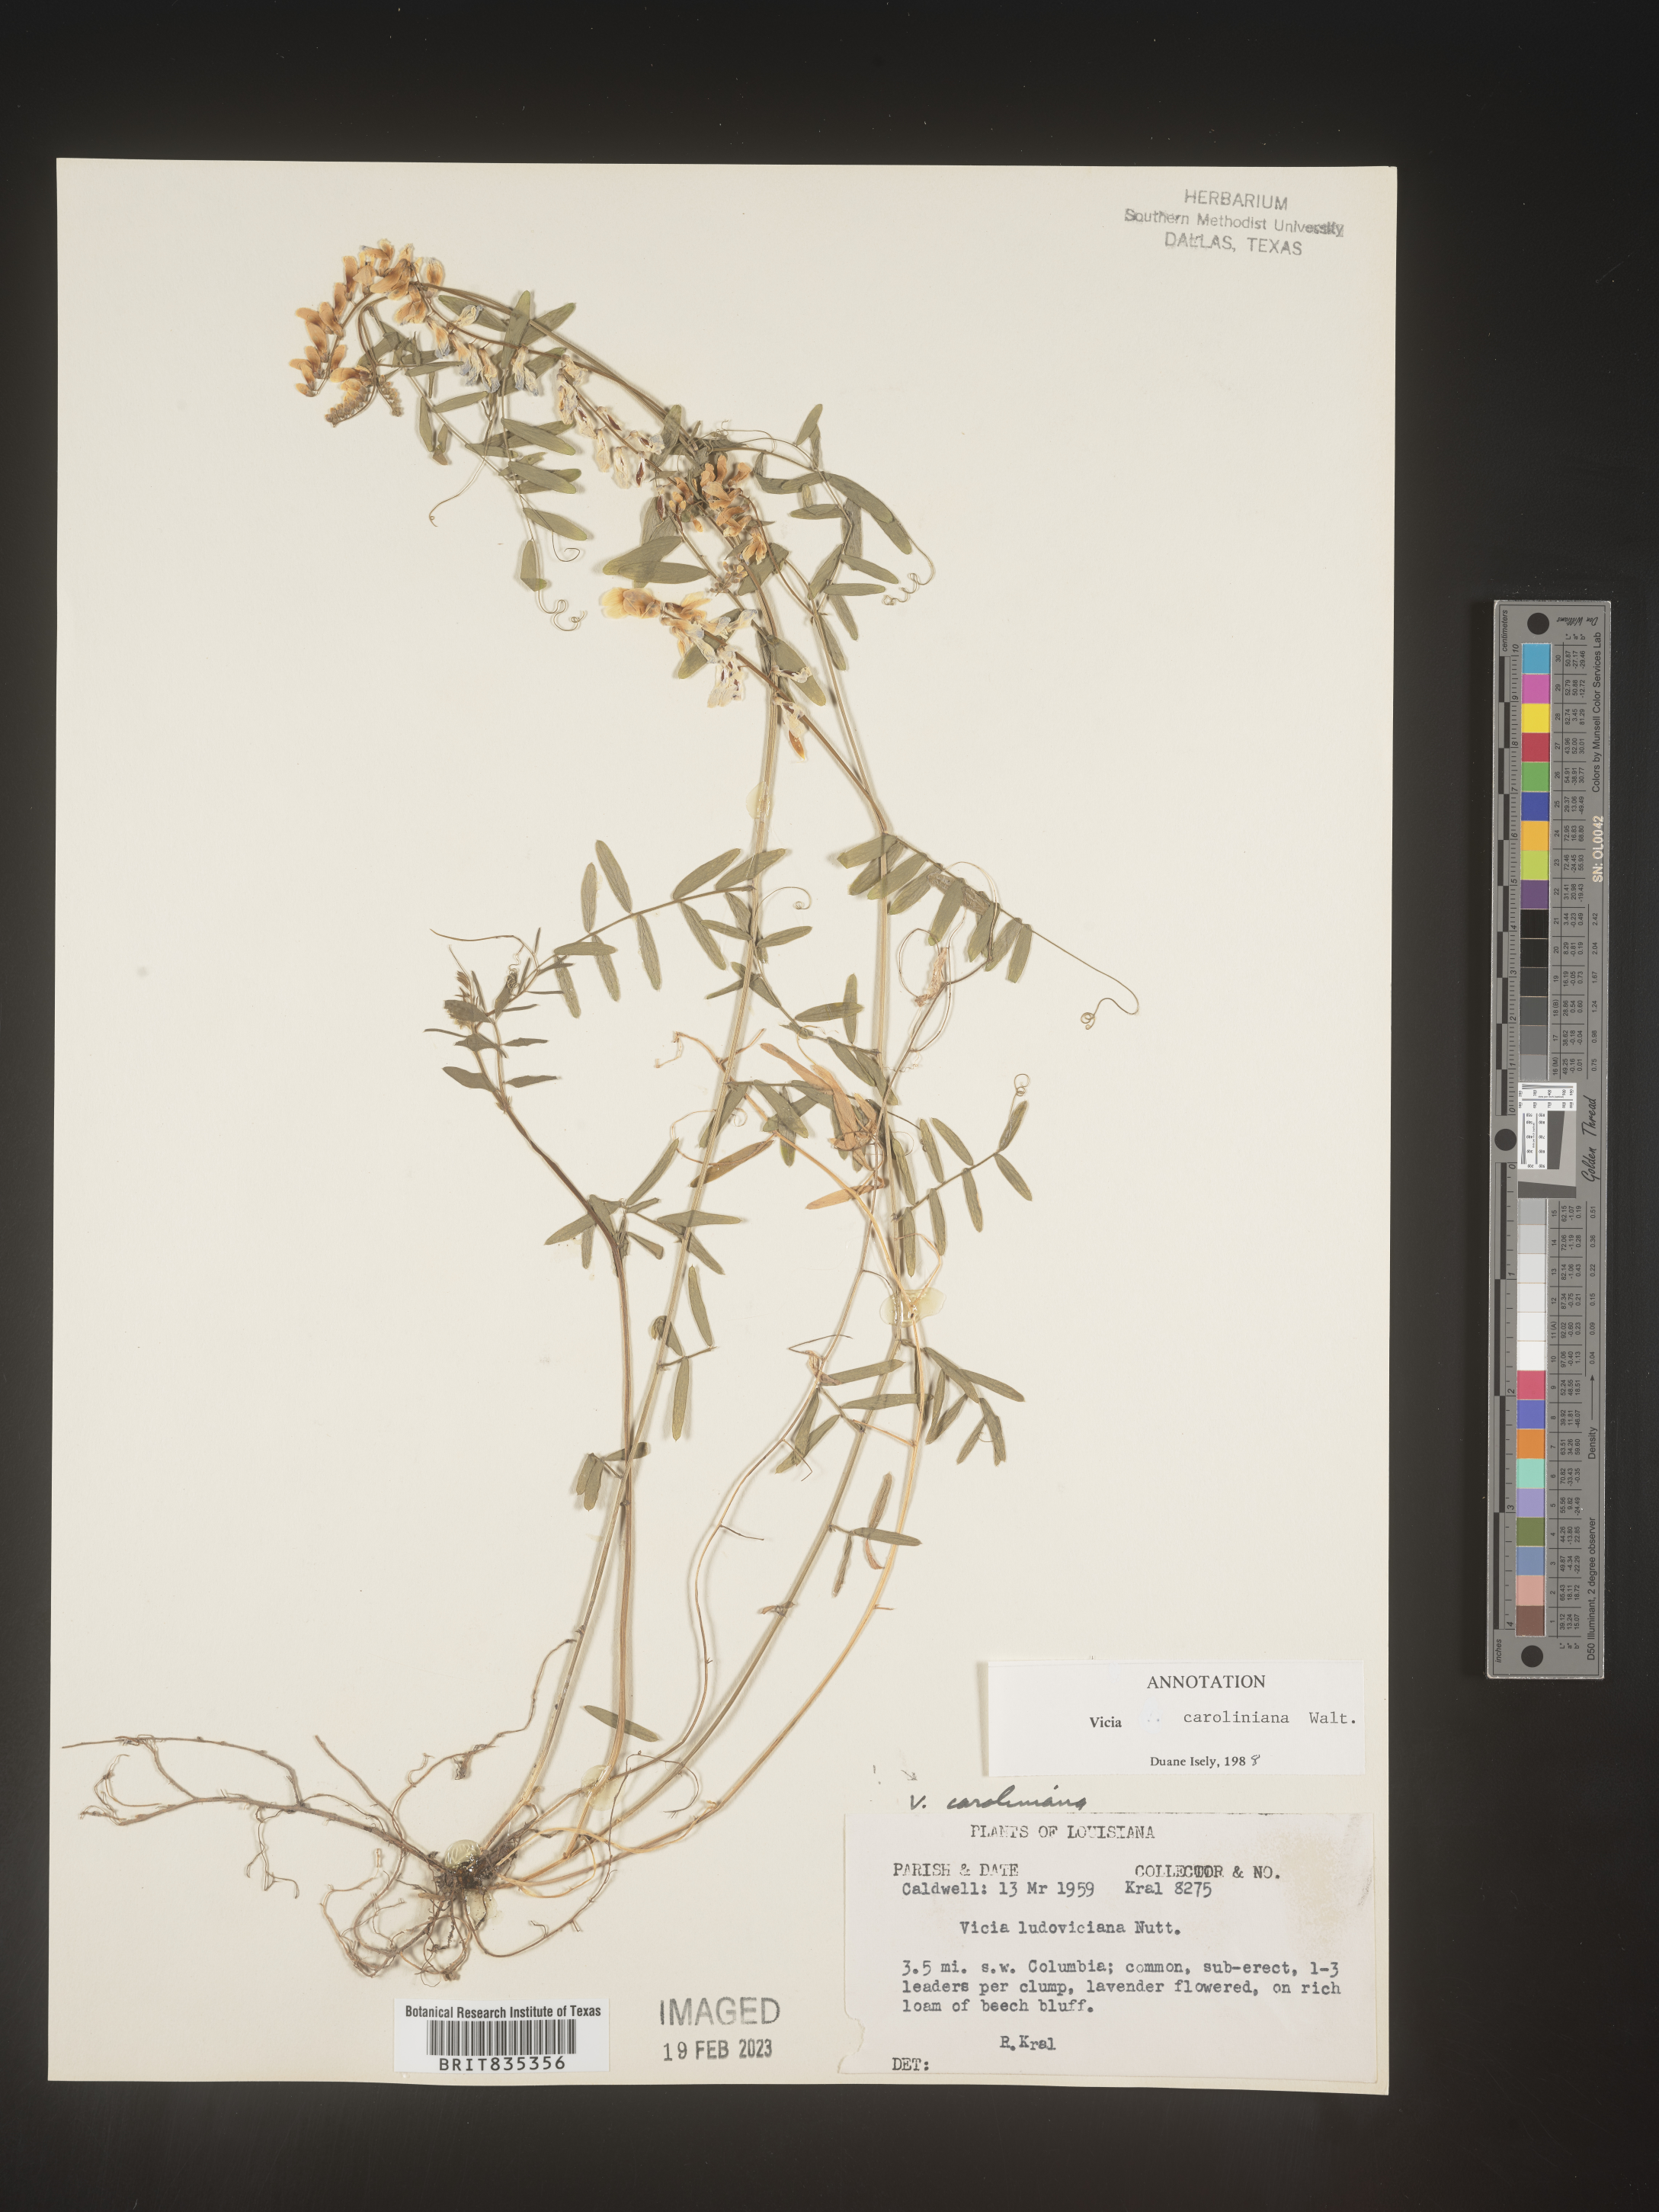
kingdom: Plantae
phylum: Tracheophyta
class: Magnoliopsida
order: Fabales
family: Fabaceae
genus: Vicia
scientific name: Vicia caroliniana
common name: Carolina vetch
